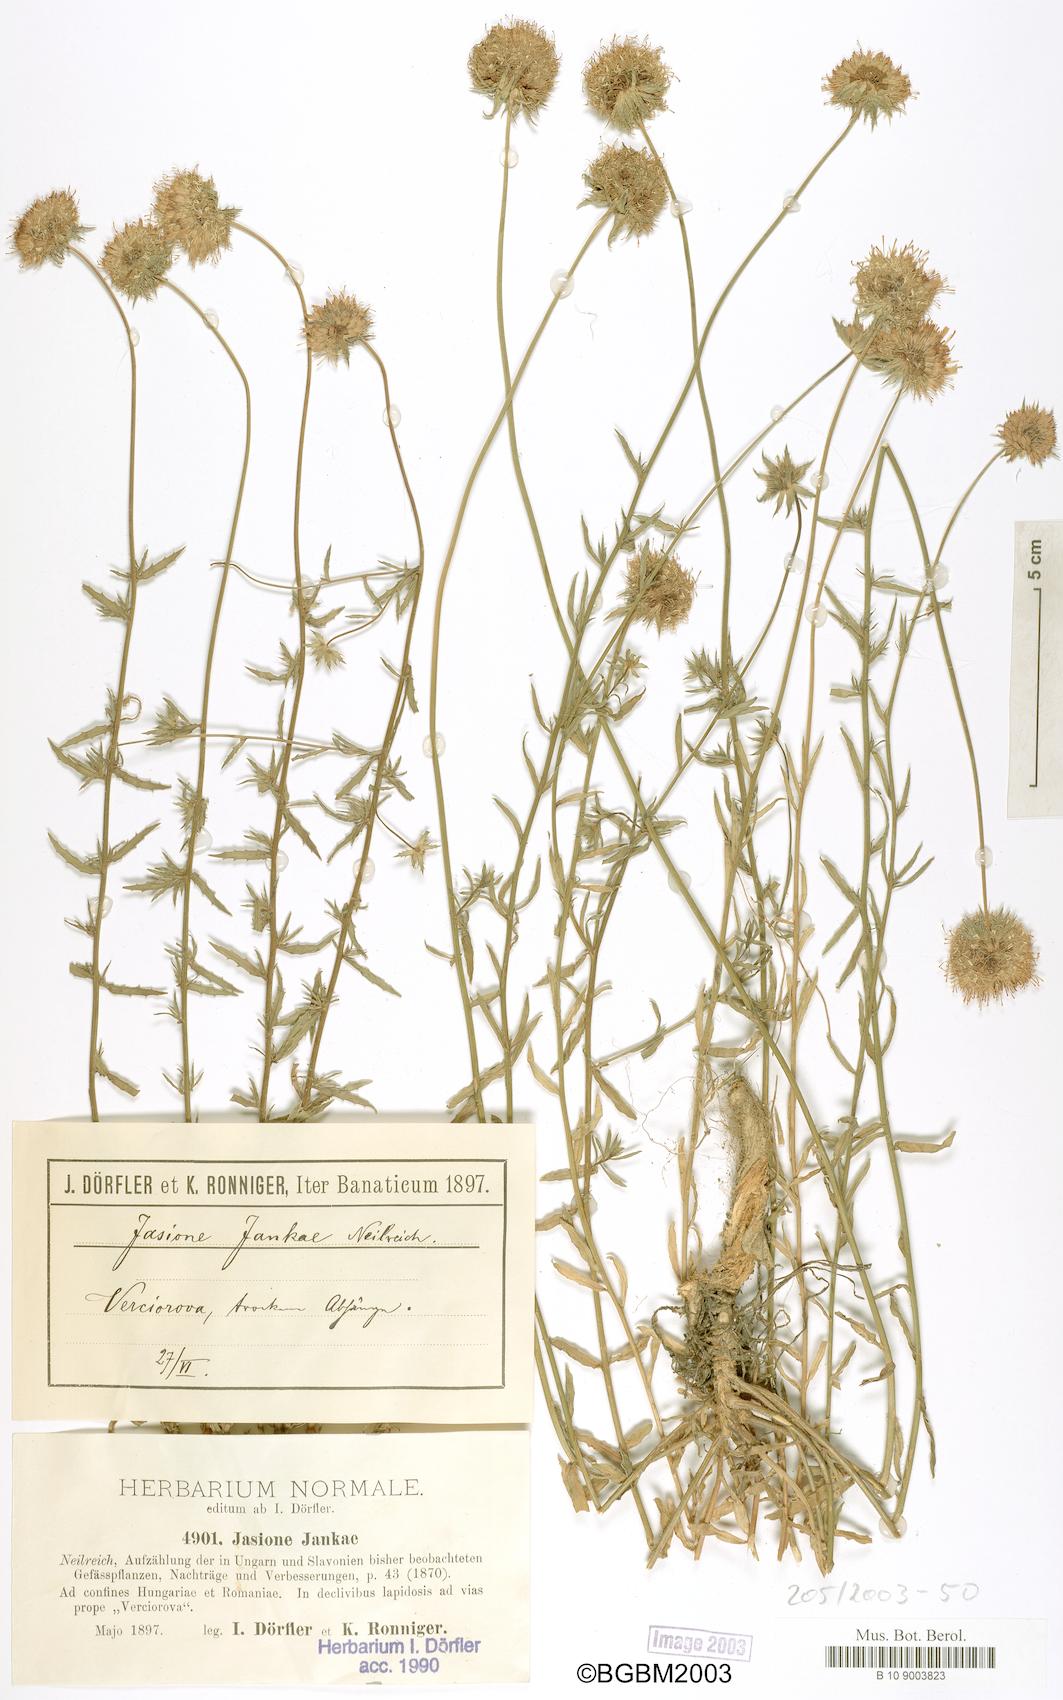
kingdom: Plantae
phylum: Tracheophyta
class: Magnoliopsida
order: Asterales
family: Campanulaceae
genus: Jasione
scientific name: Jasione heldreichii
